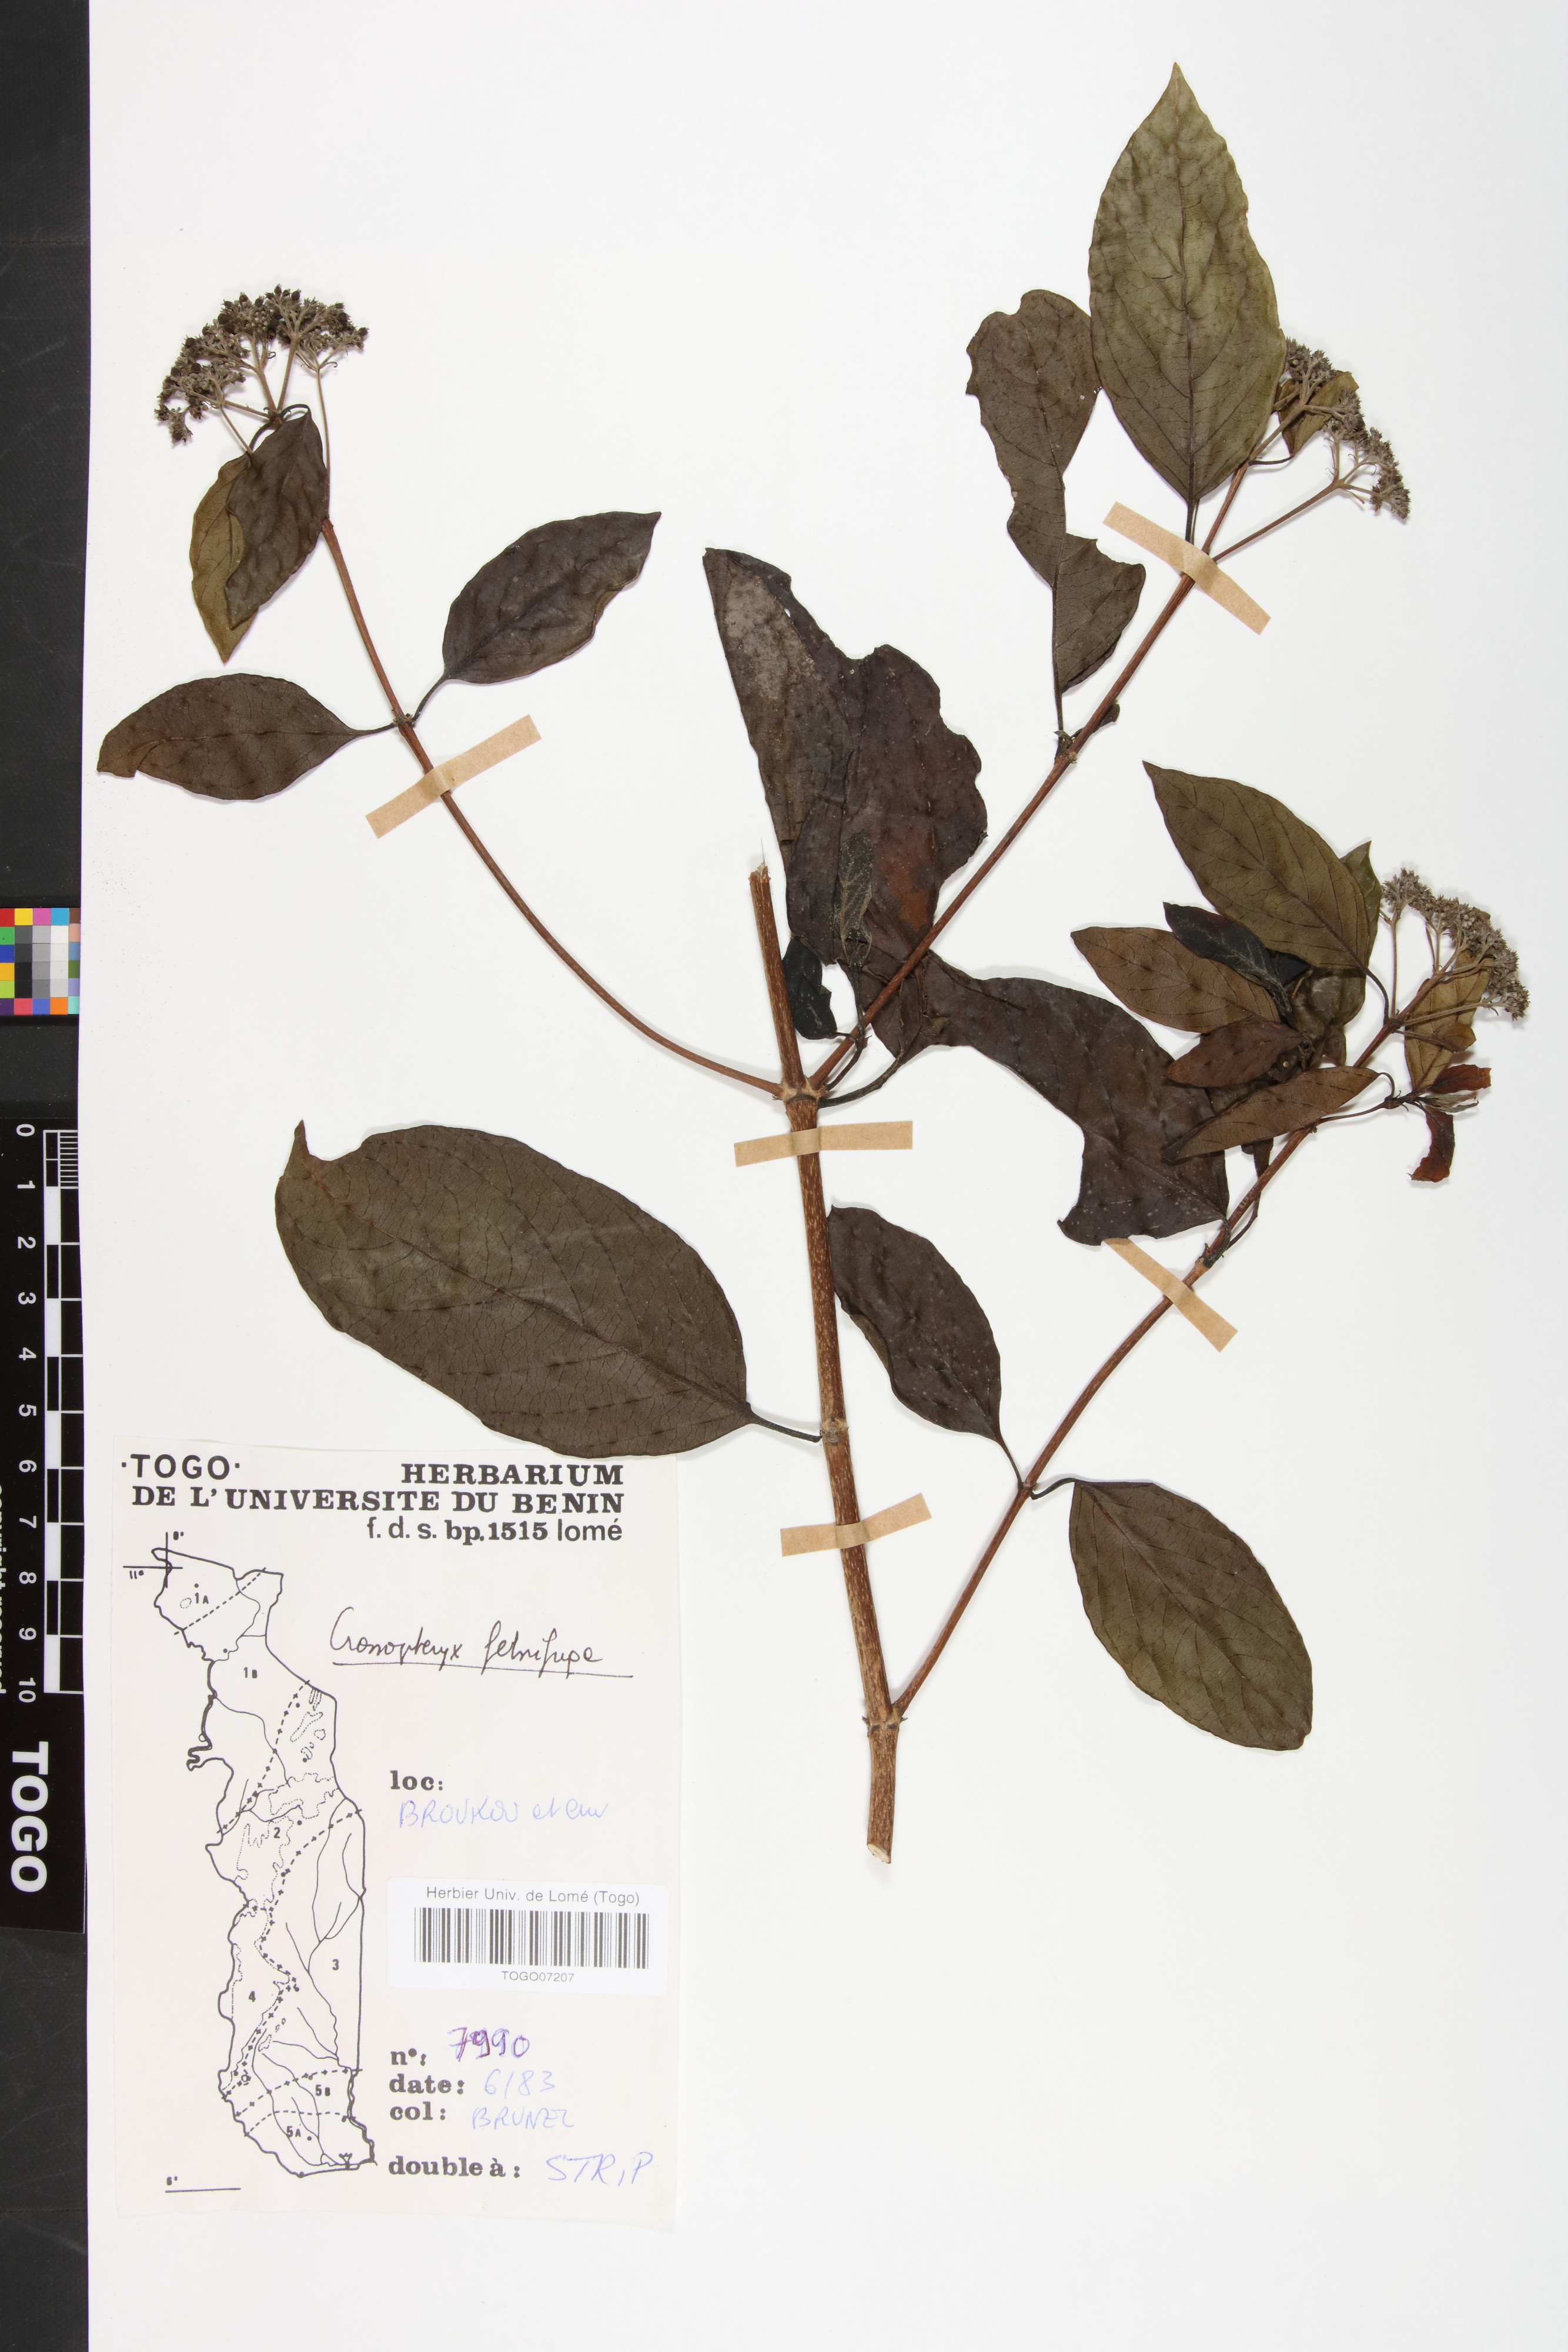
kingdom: Plantae
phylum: Tracheophyta
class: Magnoliopsida
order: Gentianales
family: Rubiaceae
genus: Crossopteryx
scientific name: Crossopteryx febrifuga
